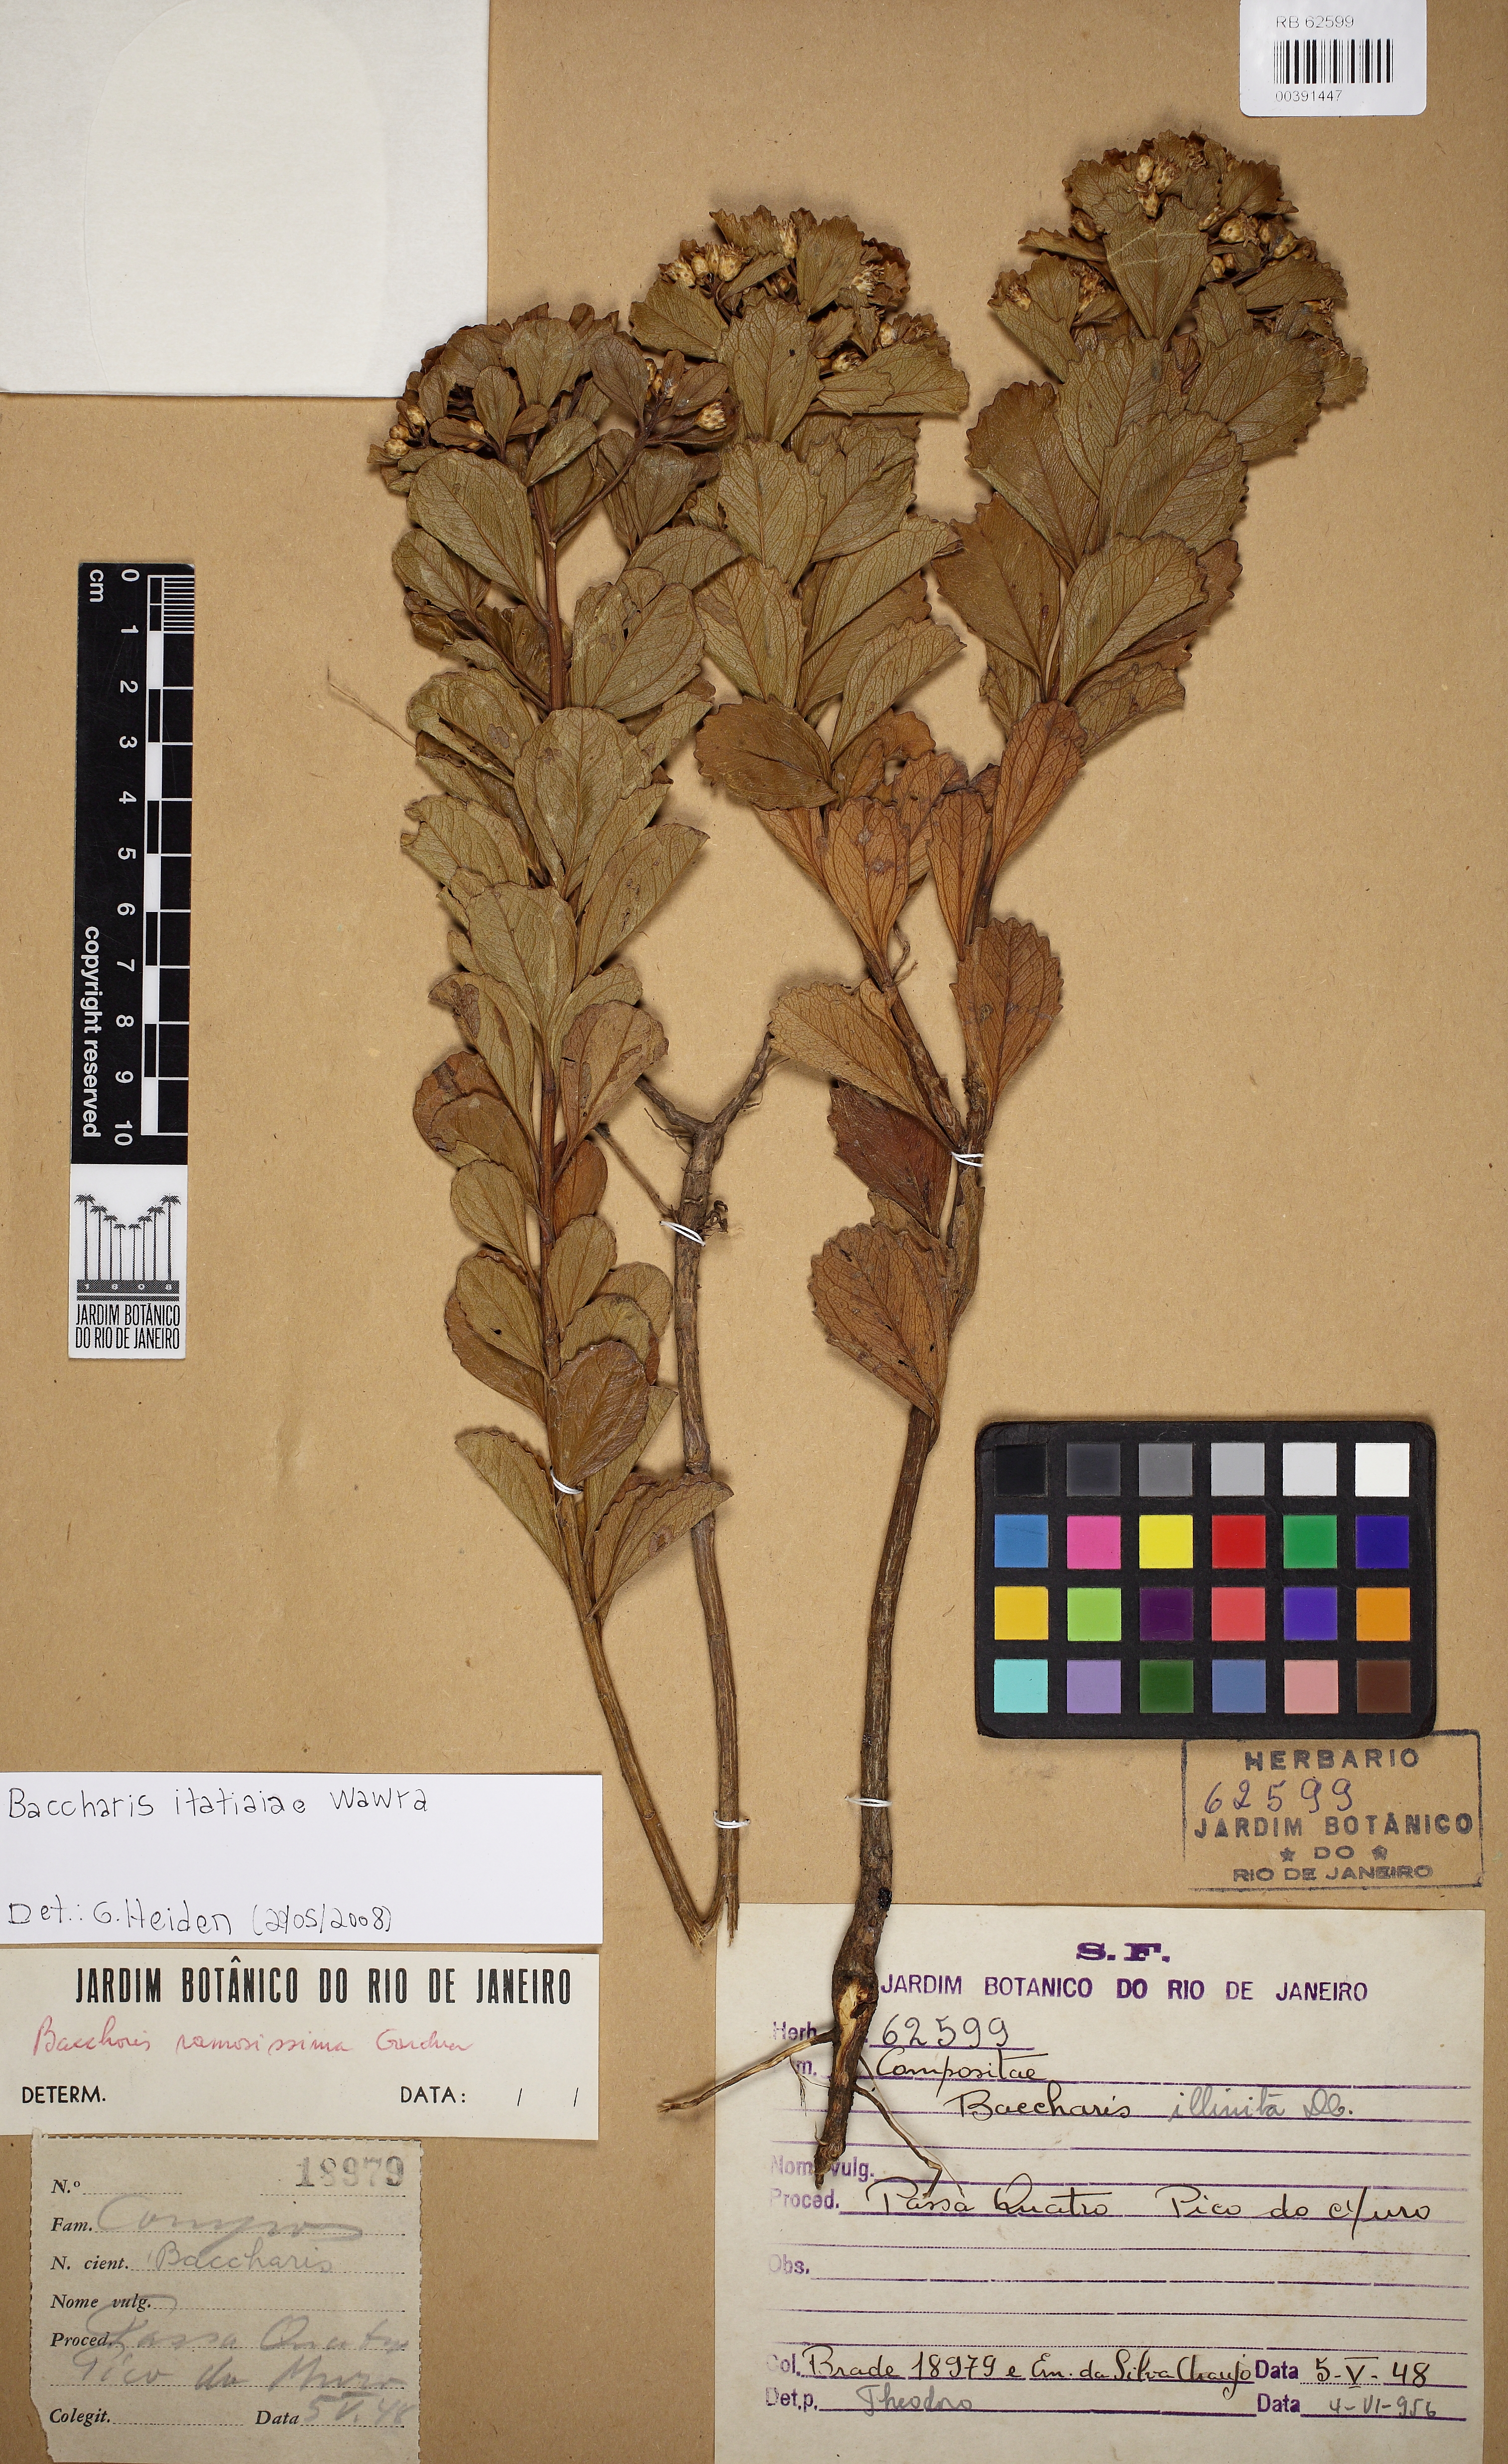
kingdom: Plantae
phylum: Tracheophyta
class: Magnoliopsida
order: Asterales
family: Asteraceae
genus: Baccharis
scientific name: Baccharis itatiaiae
